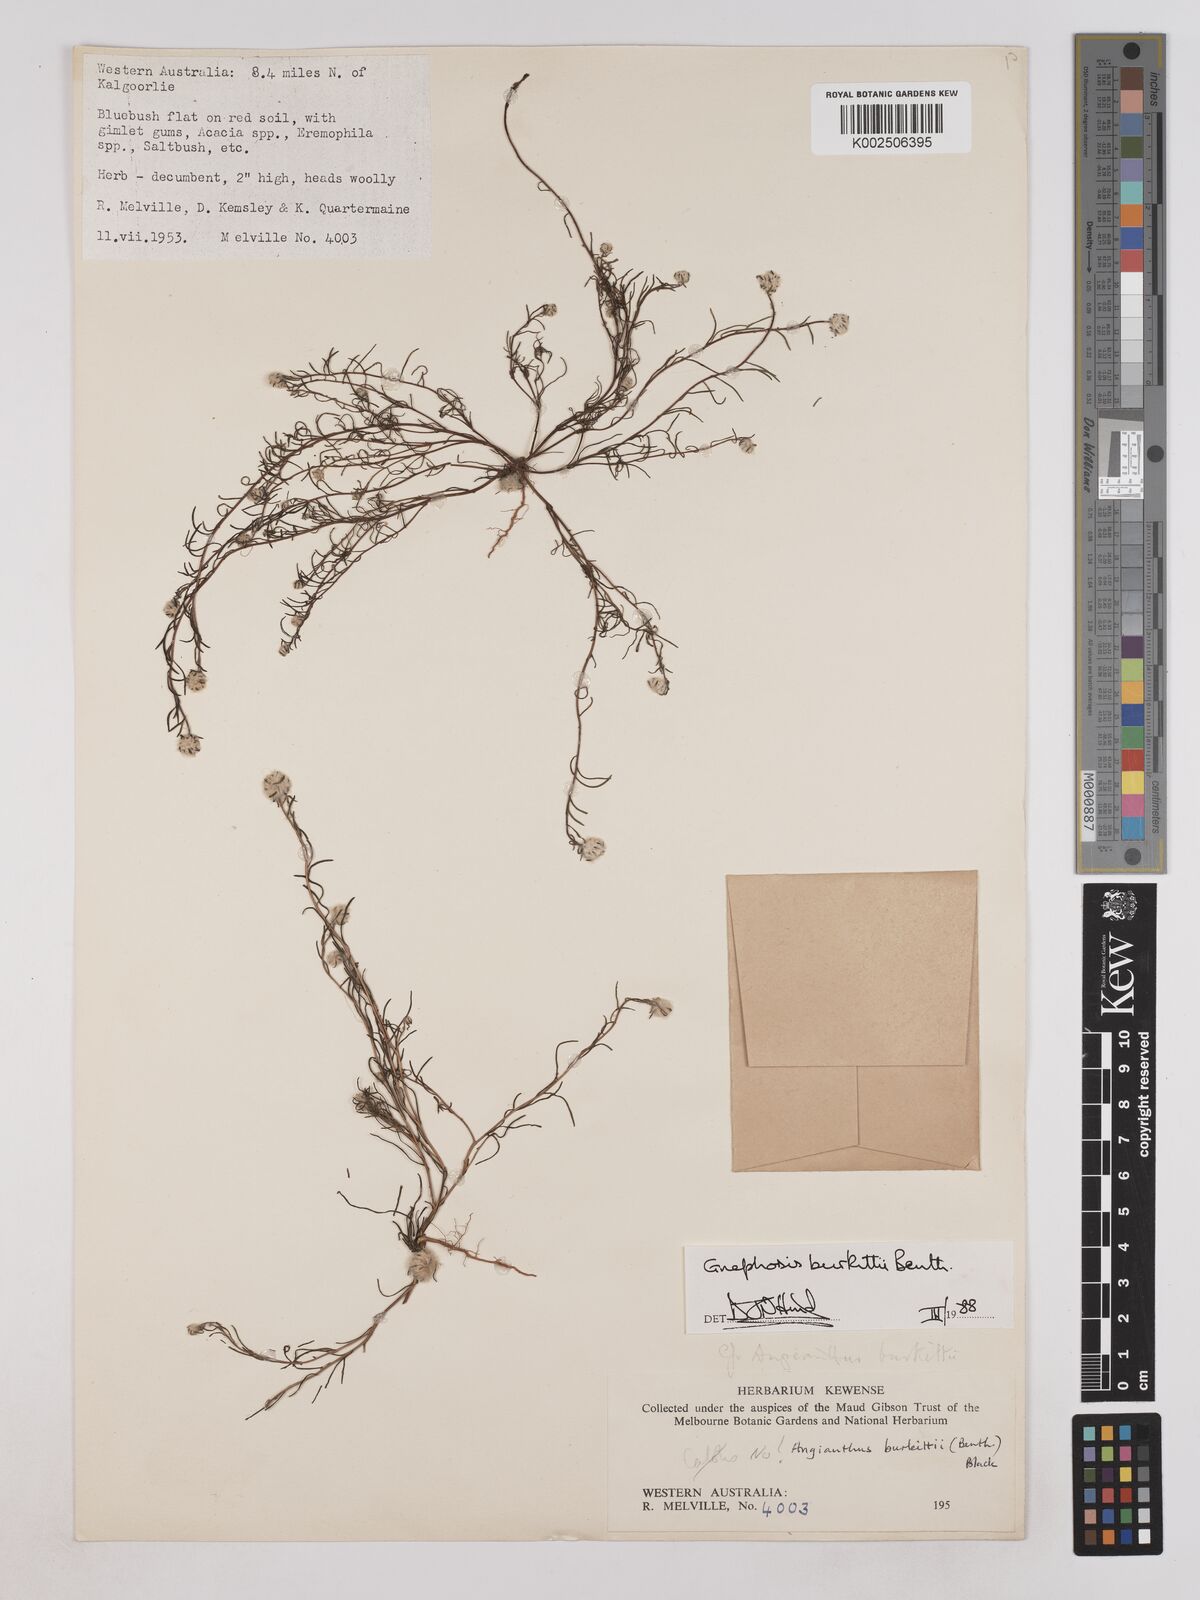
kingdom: Plantae
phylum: Tracheophyta
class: Magnoliopsida
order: Asterales
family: Asteraceae
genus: Lemooria
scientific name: Lemooria burkittii
